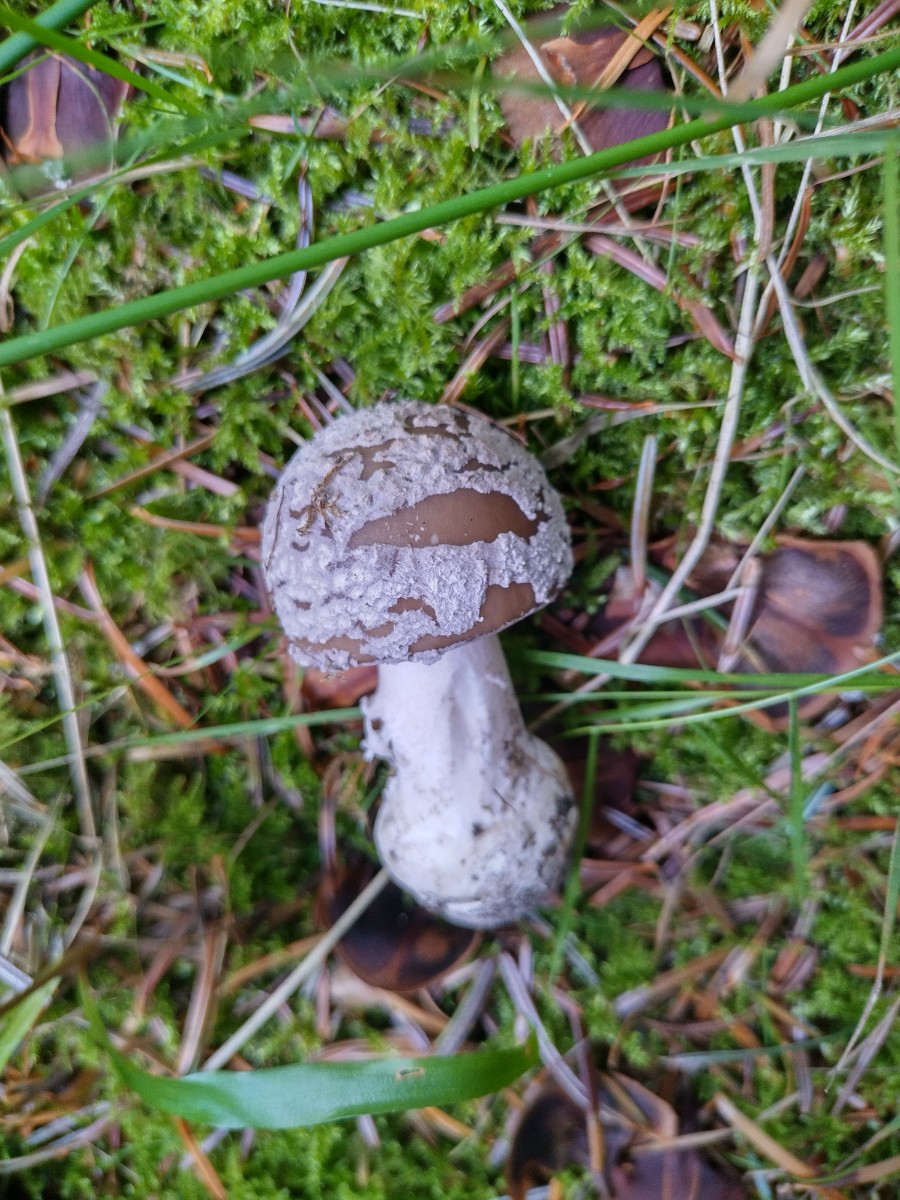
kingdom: Fungi
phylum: Basidiomycota
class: Agaricomycetes
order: Agaricales
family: Amanitaceae
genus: Amanita
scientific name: Amanita
